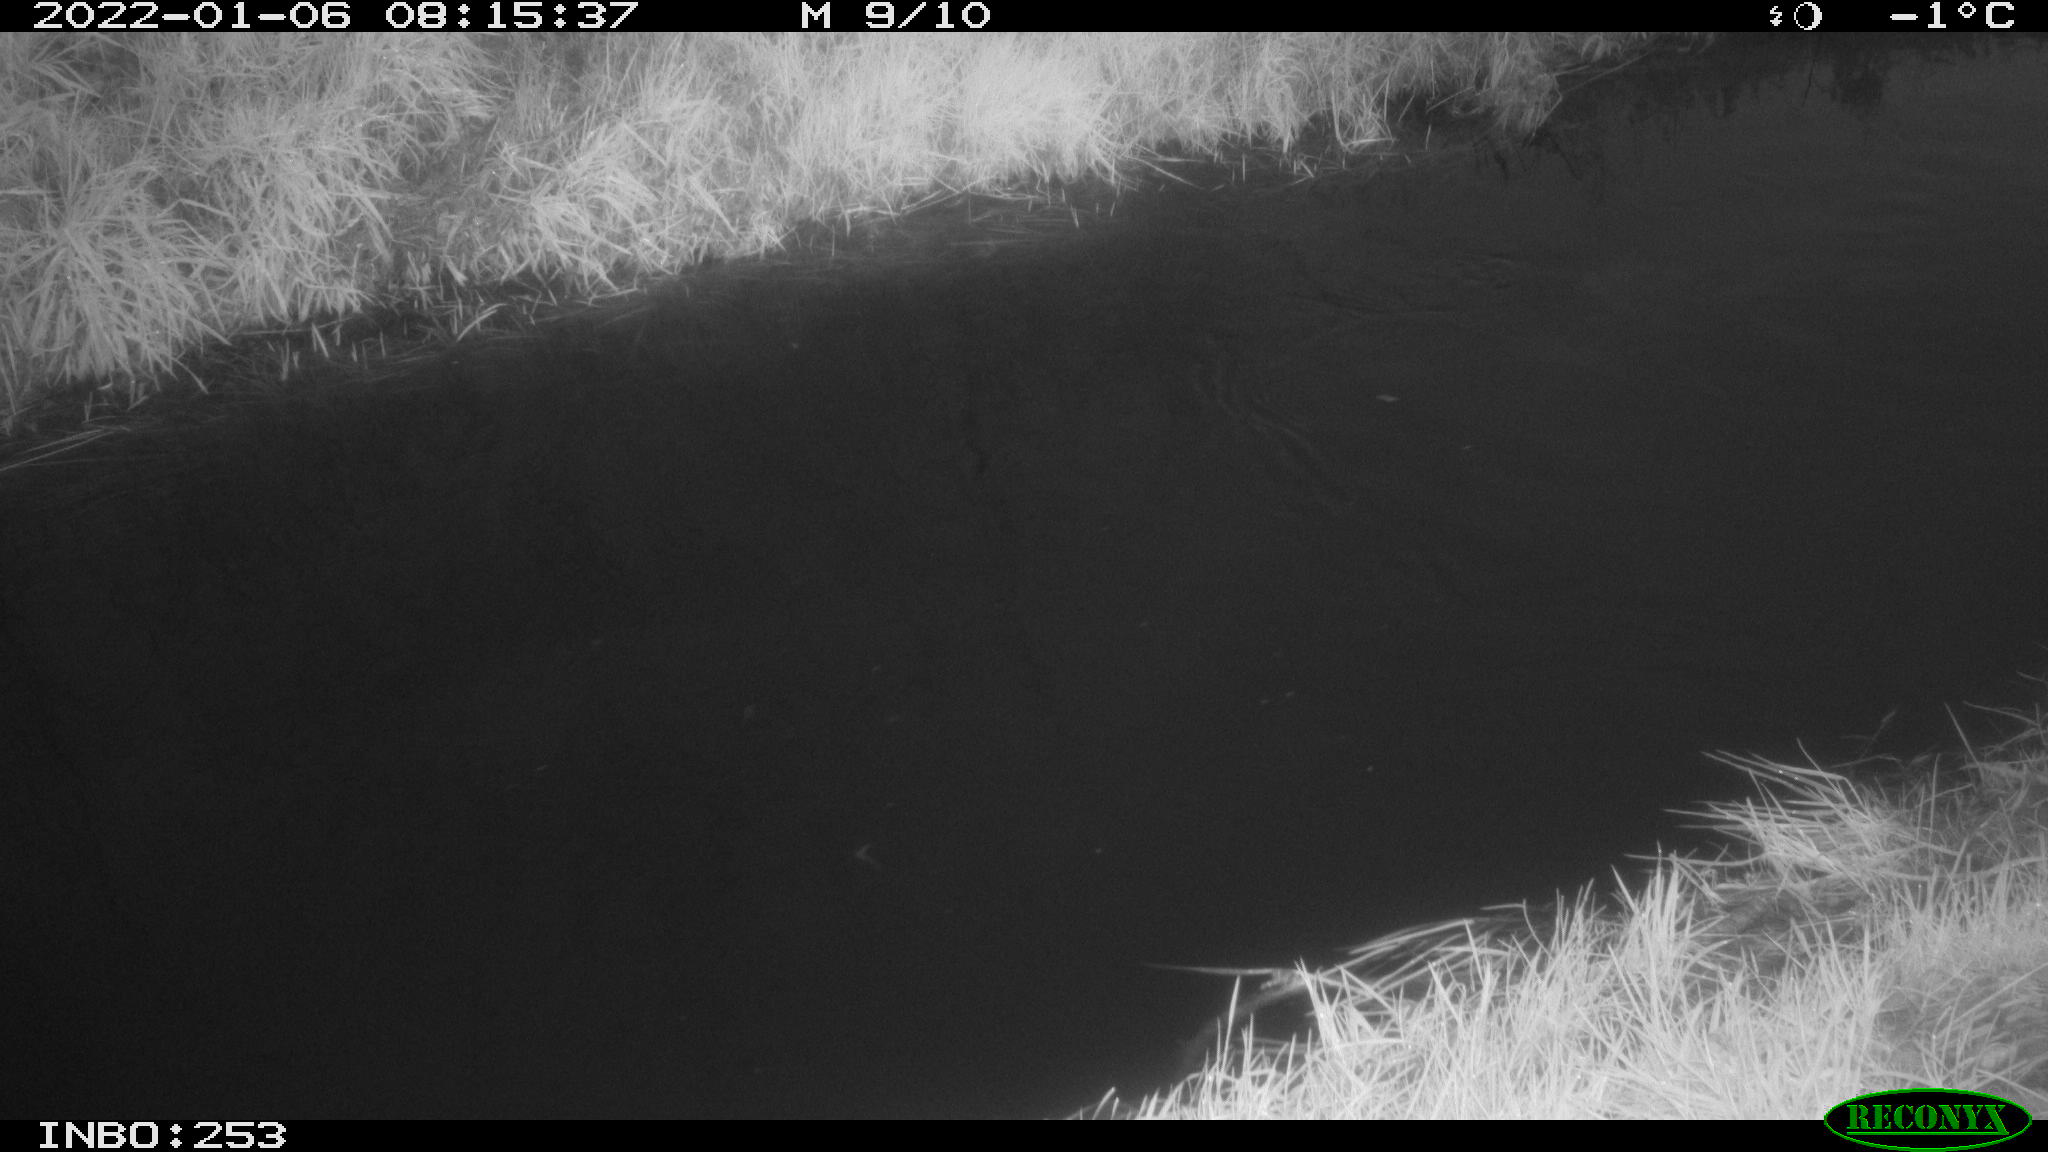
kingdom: Animalia
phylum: Chordata
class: Aves
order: Anseriformes
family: Anatidae
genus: Anas
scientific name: Anas
